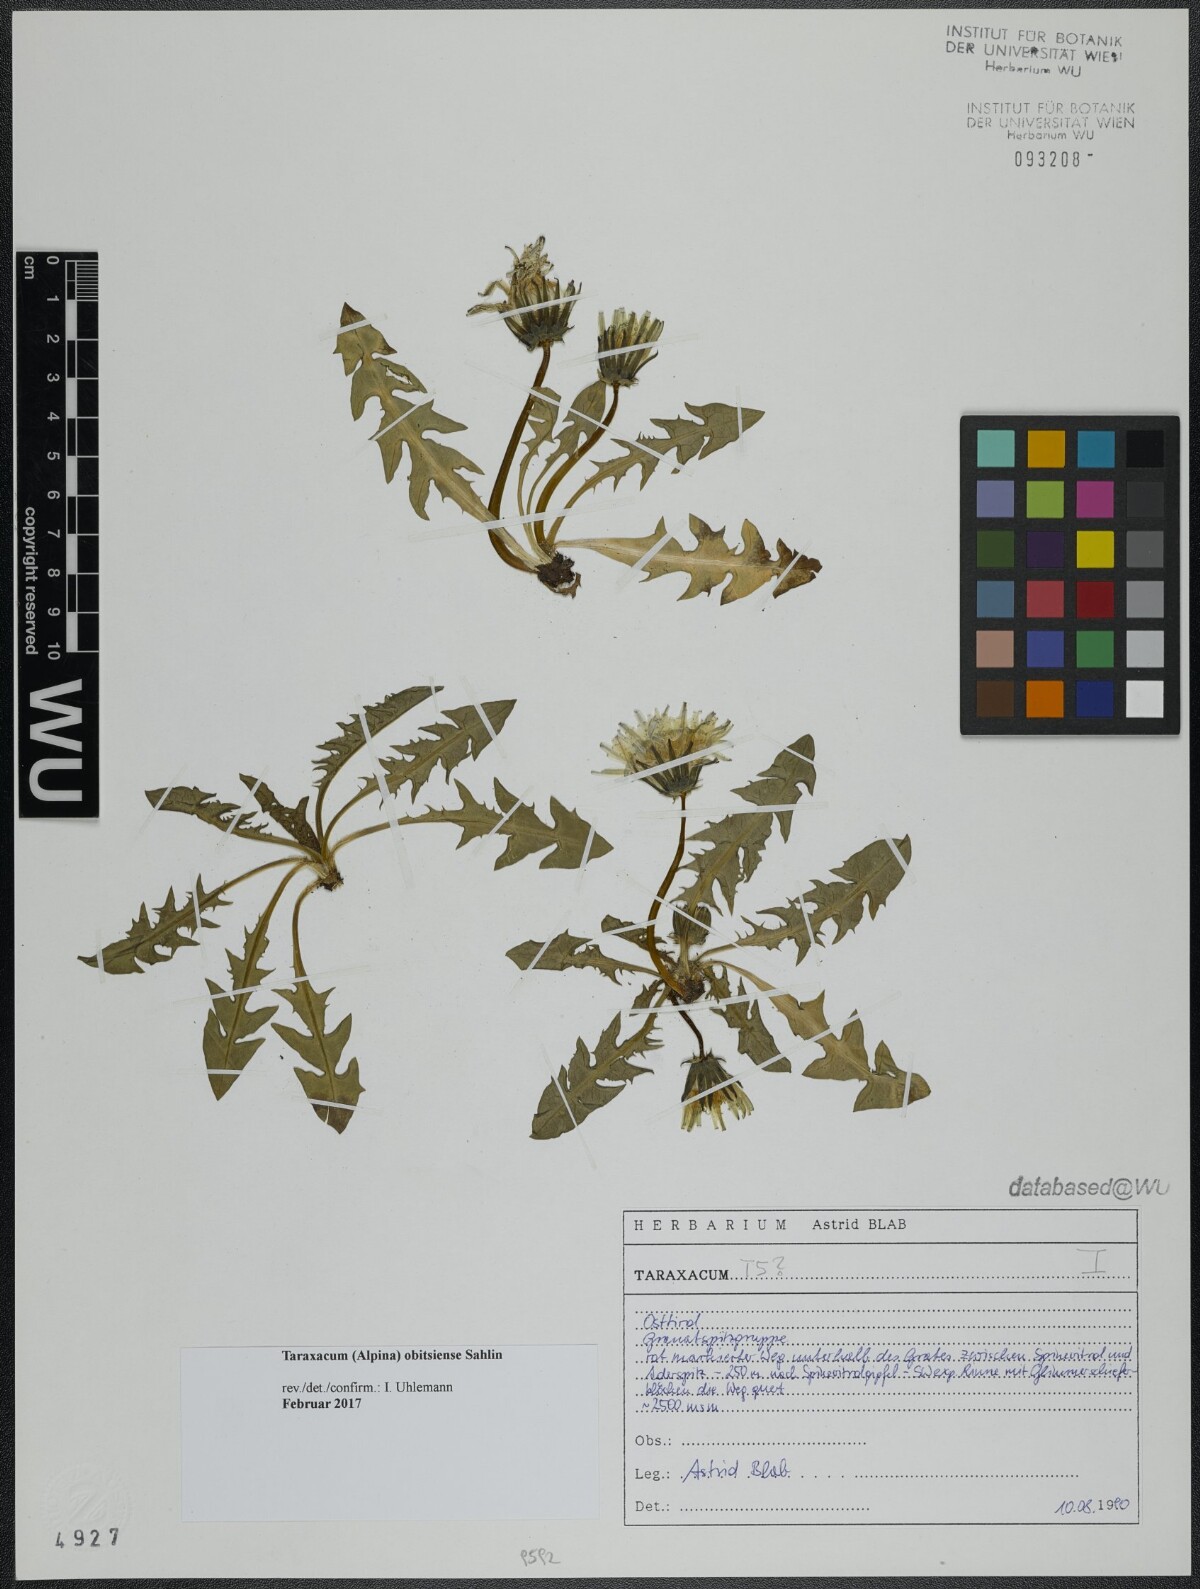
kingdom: Plantae
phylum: Tracheophyta
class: Magnoliopsida
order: Asterales
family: Asteraceae
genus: Taraxacum
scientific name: Taraxacum obitsiense
